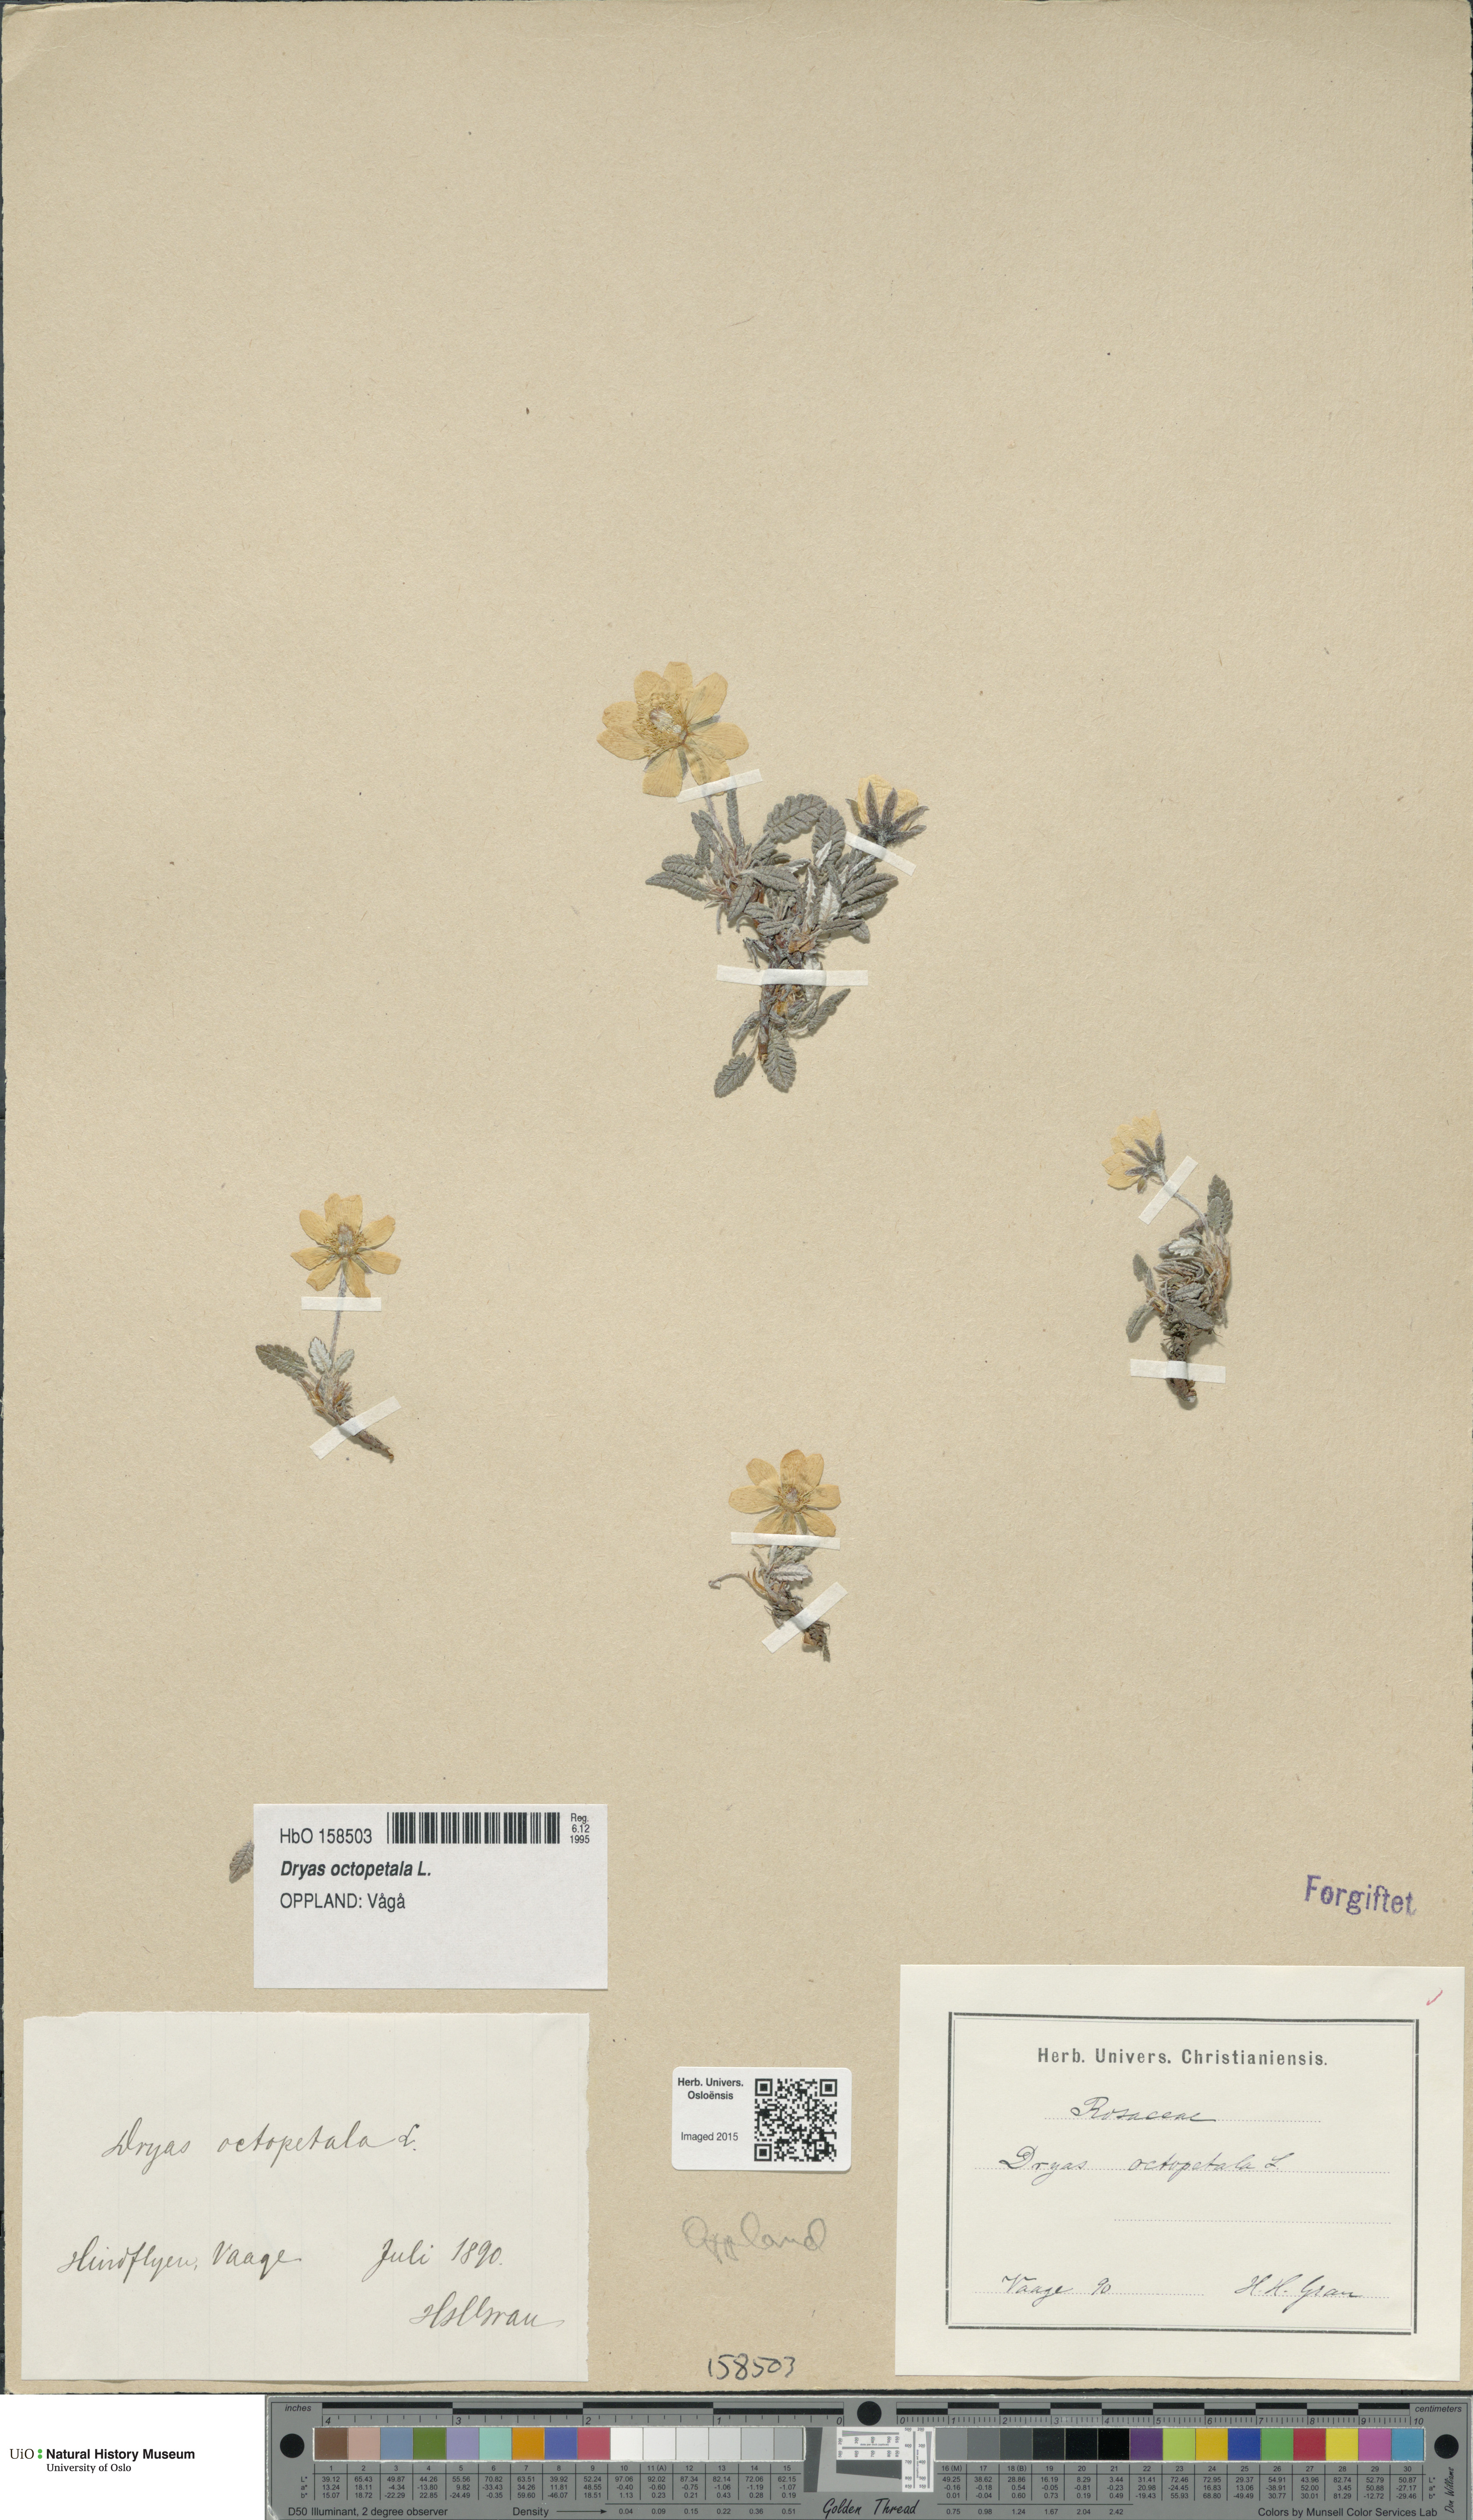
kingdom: Plantae
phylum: Tracheophyta
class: Magnoliopsida
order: Rosales
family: Rosaceae
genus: Dryas
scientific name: Dryas octopetala
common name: Eight-petal mountain-avens
